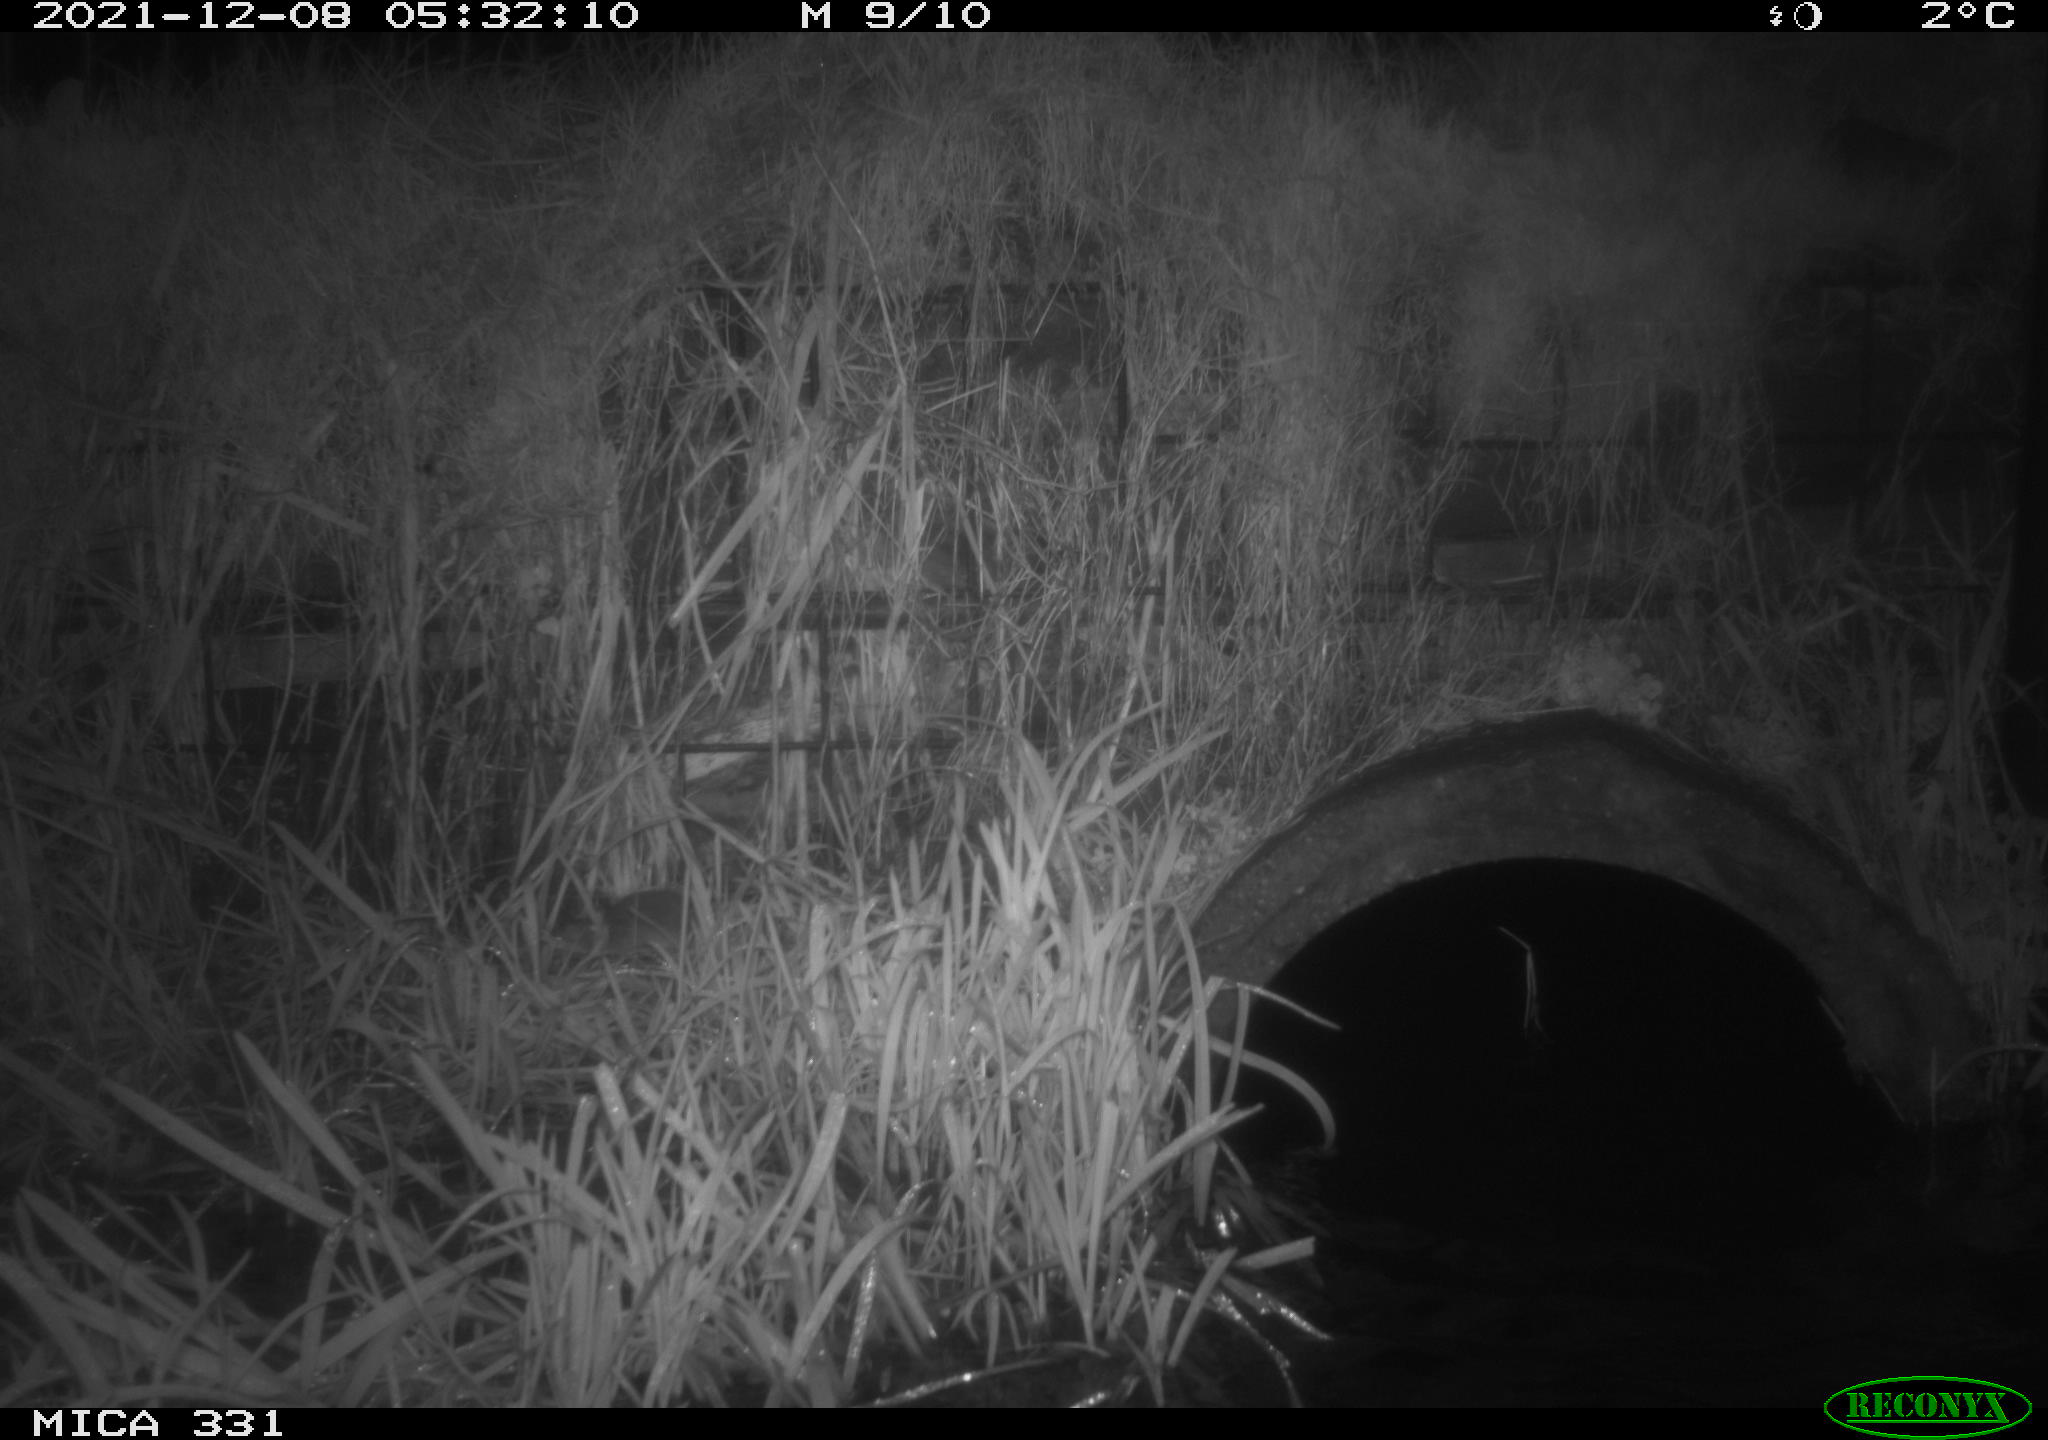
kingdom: Animalia
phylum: Chordata
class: Mammalia
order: Rodentia
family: Muridae
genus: Rattus
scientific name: Rattus norvegicus
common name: Brown rat
